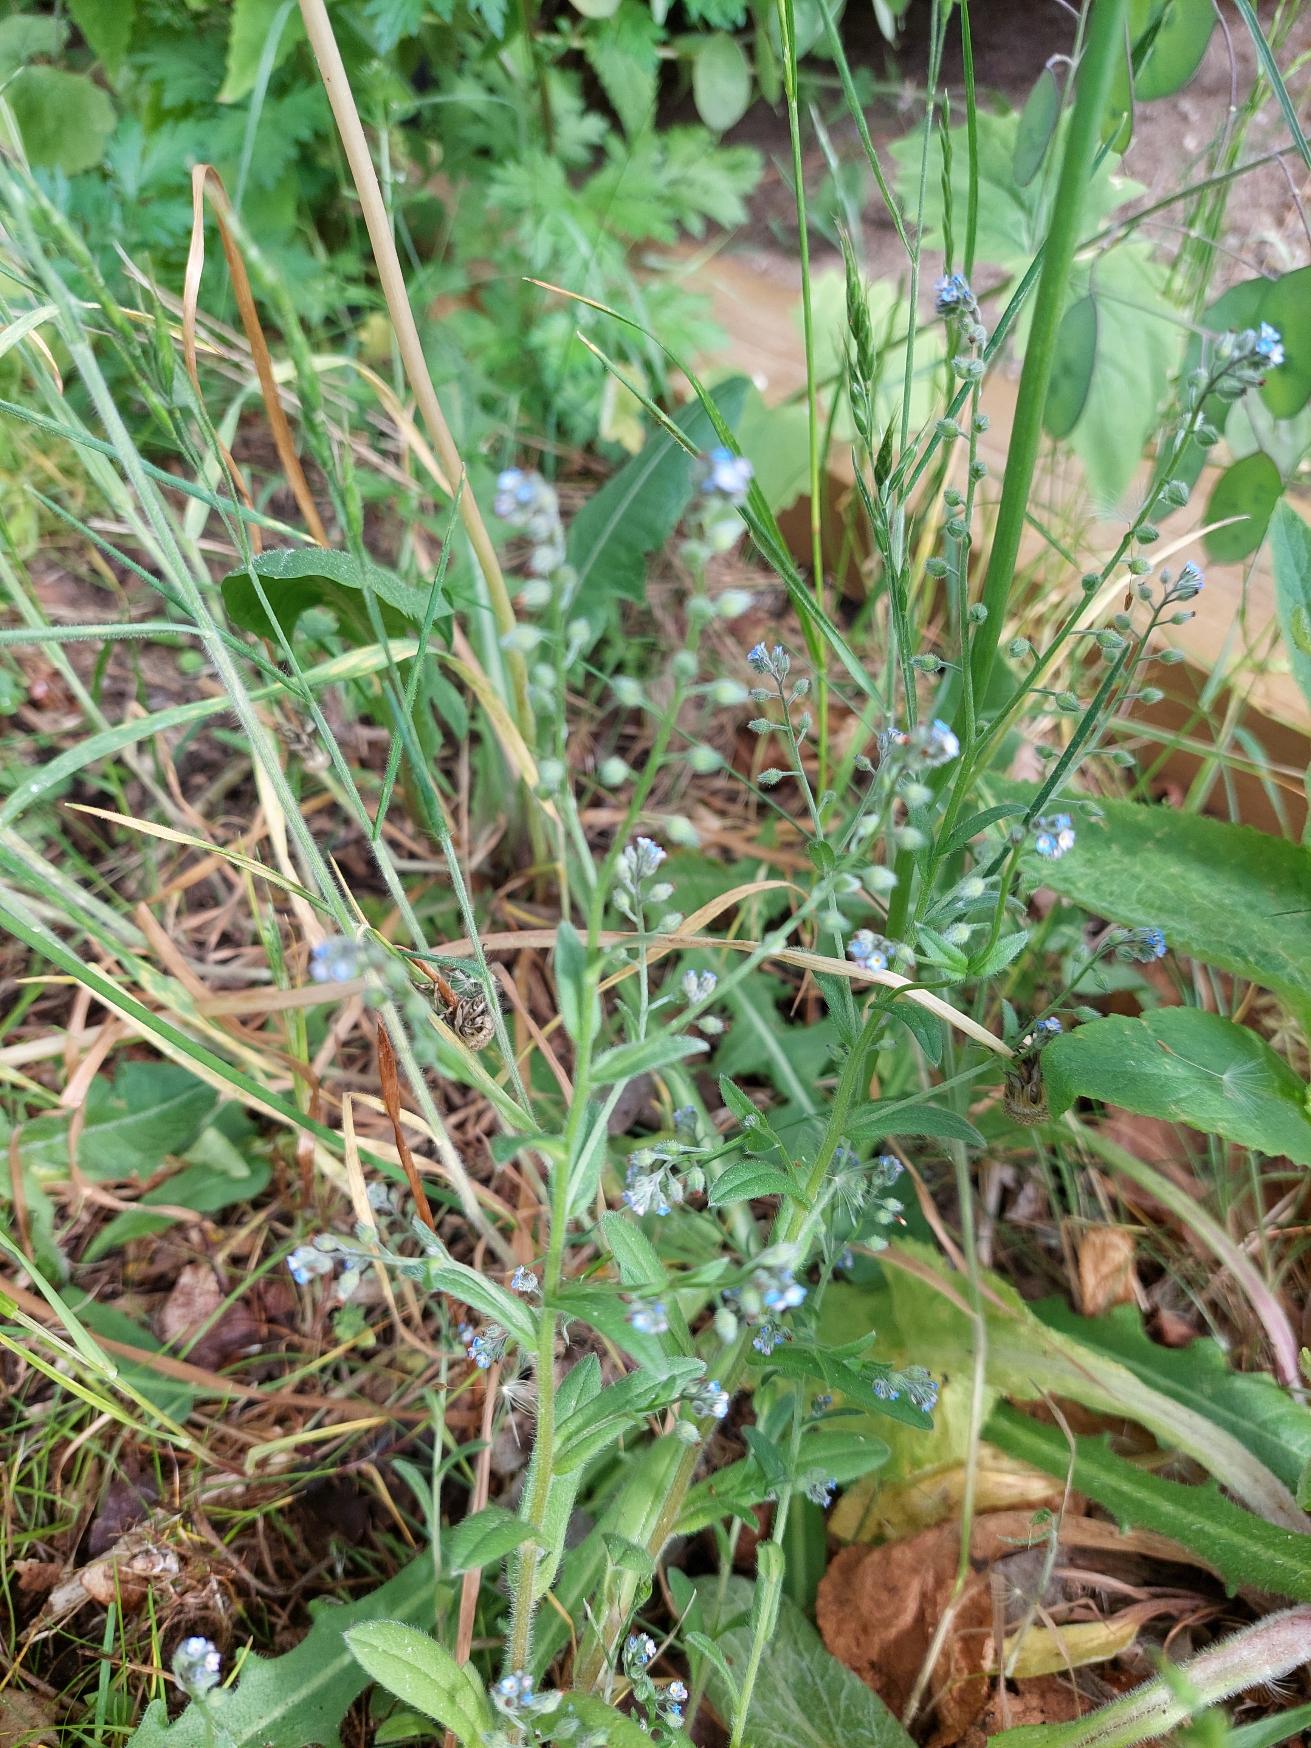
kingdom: Plantae
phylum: Tracheophyta
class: Magnoliopsida
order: Boraginales
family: Boraginaceae
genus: Myosotis
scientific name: Myosotis arvensis
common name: Mark-forglemmigej
